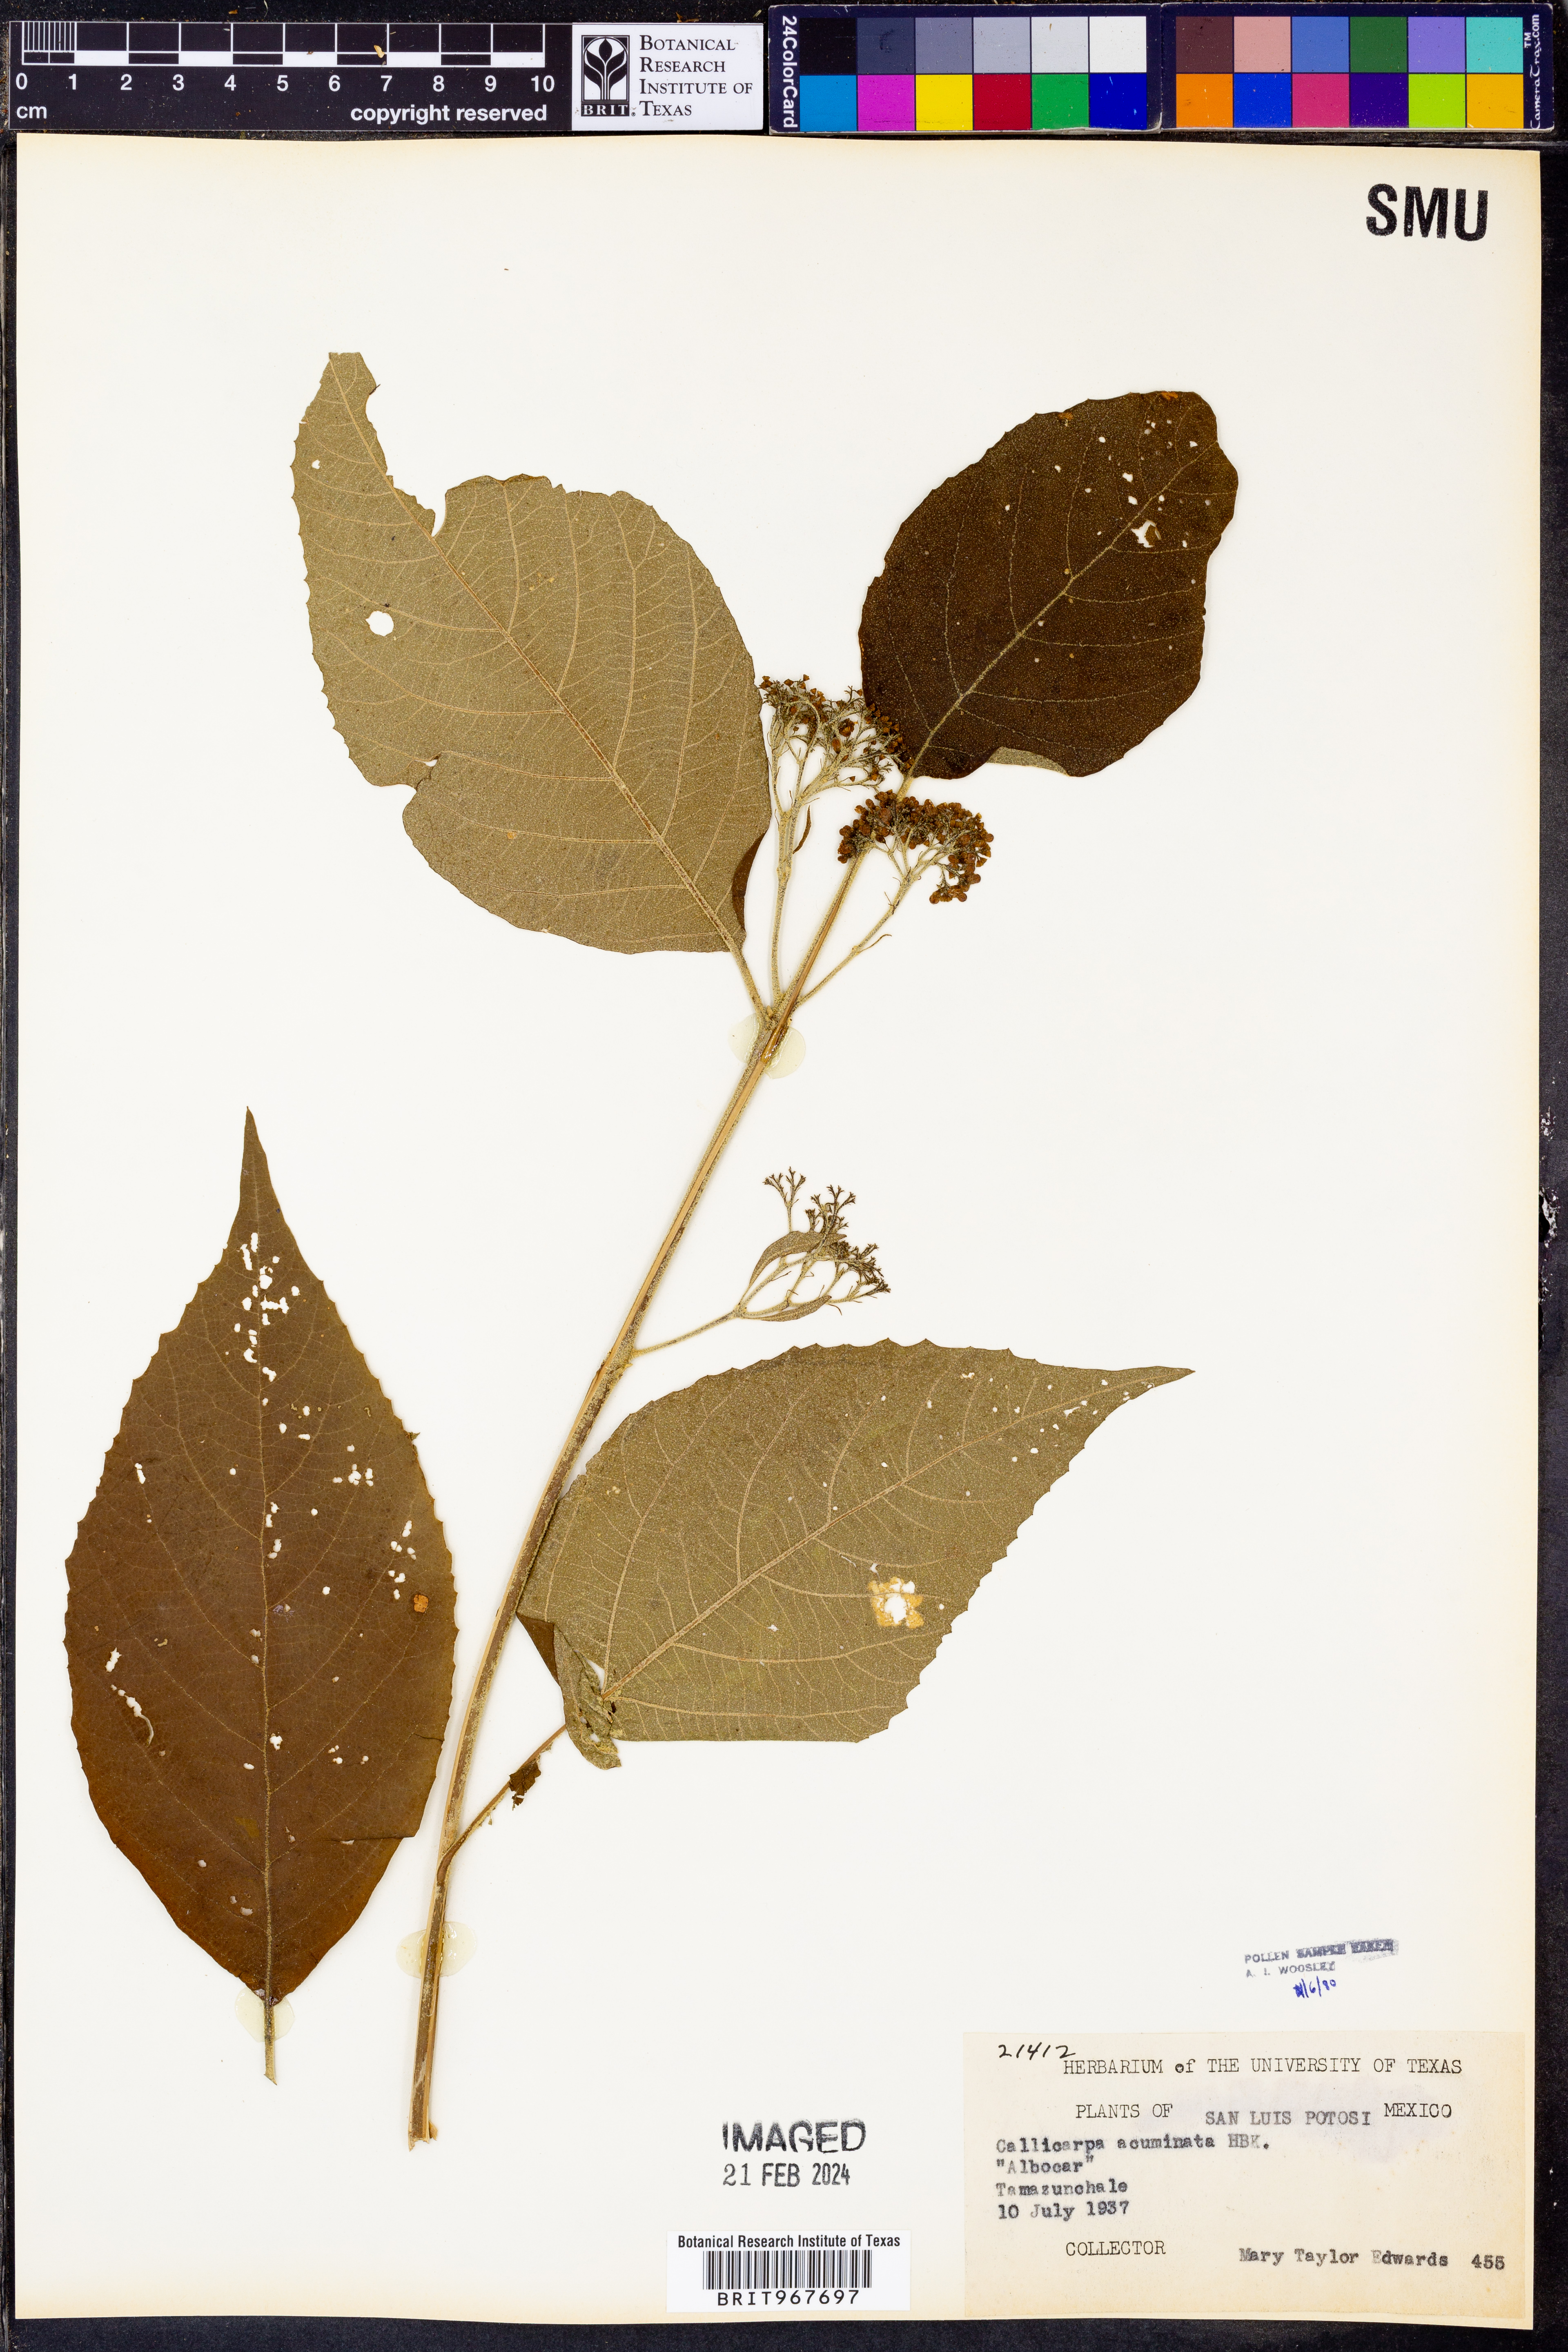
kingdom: Plantae
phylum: Tracheophyta
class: Magnoliopsida
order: Lamiales
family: Lamiaceae
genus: Callicarpa
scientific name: Callicarpa
